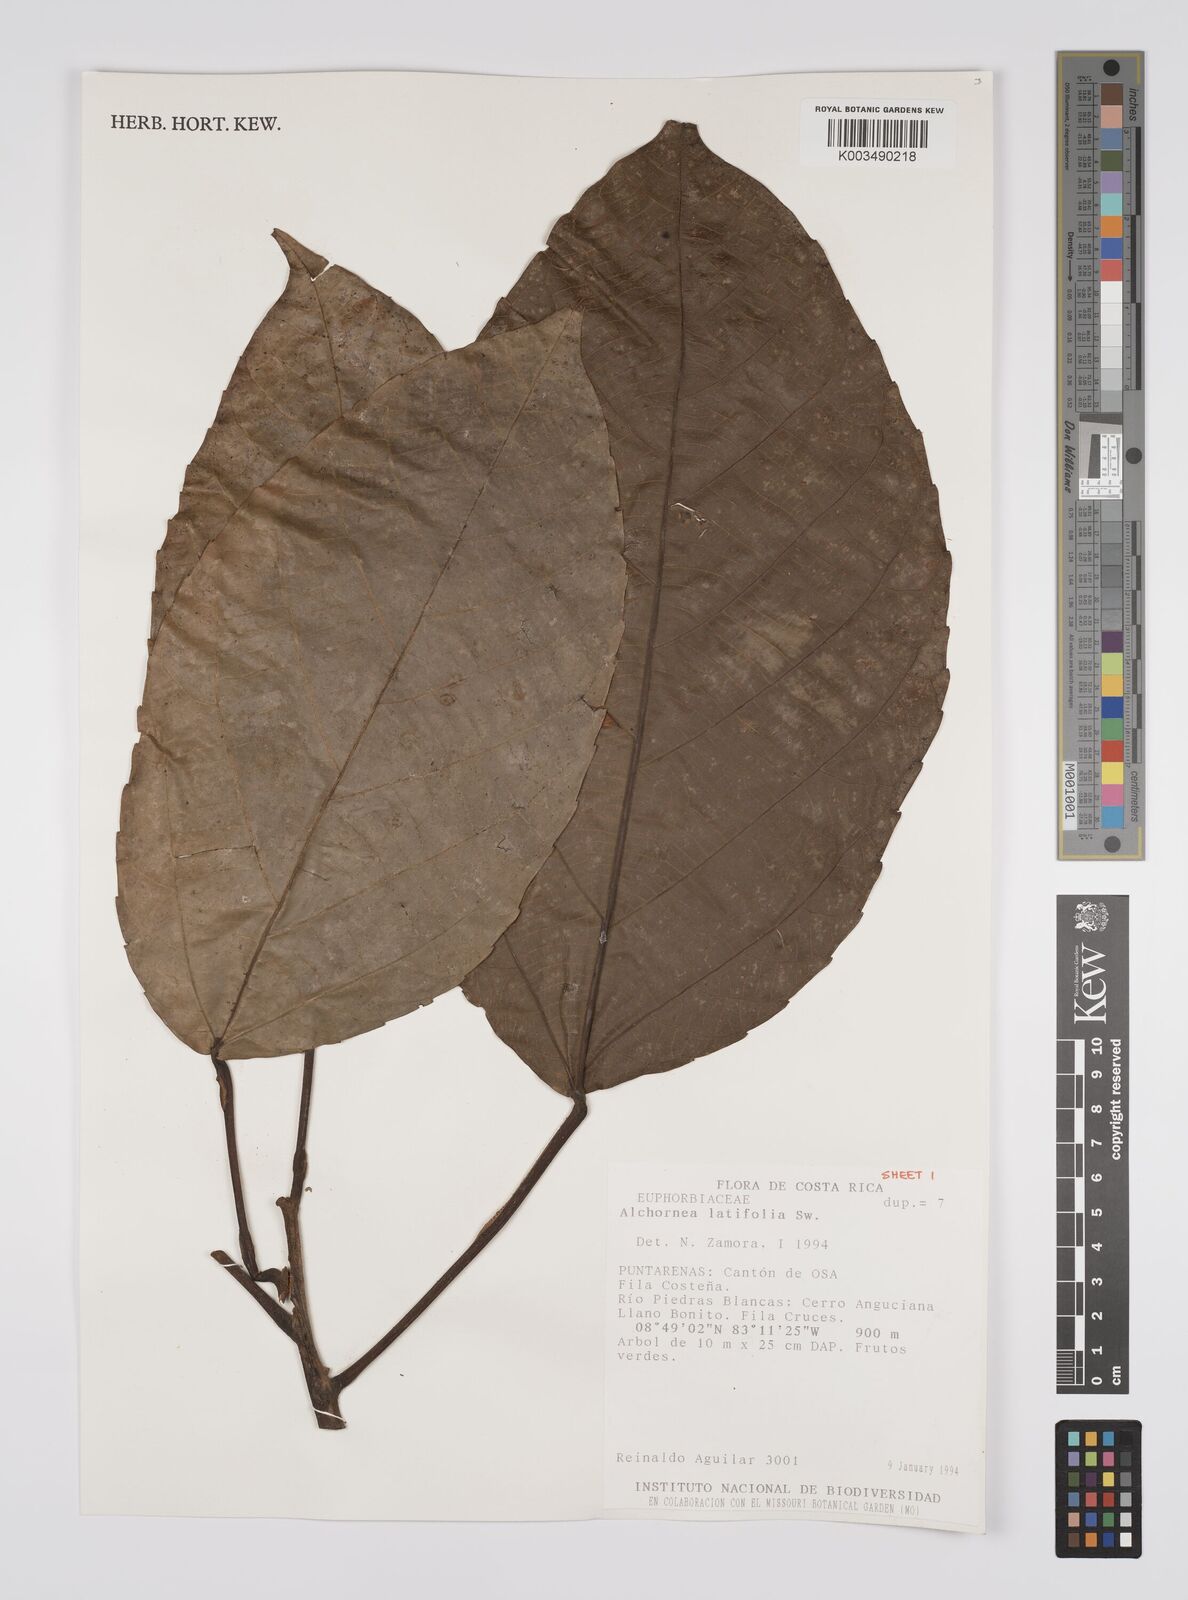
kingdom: Plantae
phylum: Tracheophyta
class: Magnoliopsida
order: Malpighiales
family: Euphorbiaceae
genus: Alchornea
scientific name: Alchornea latifolia
